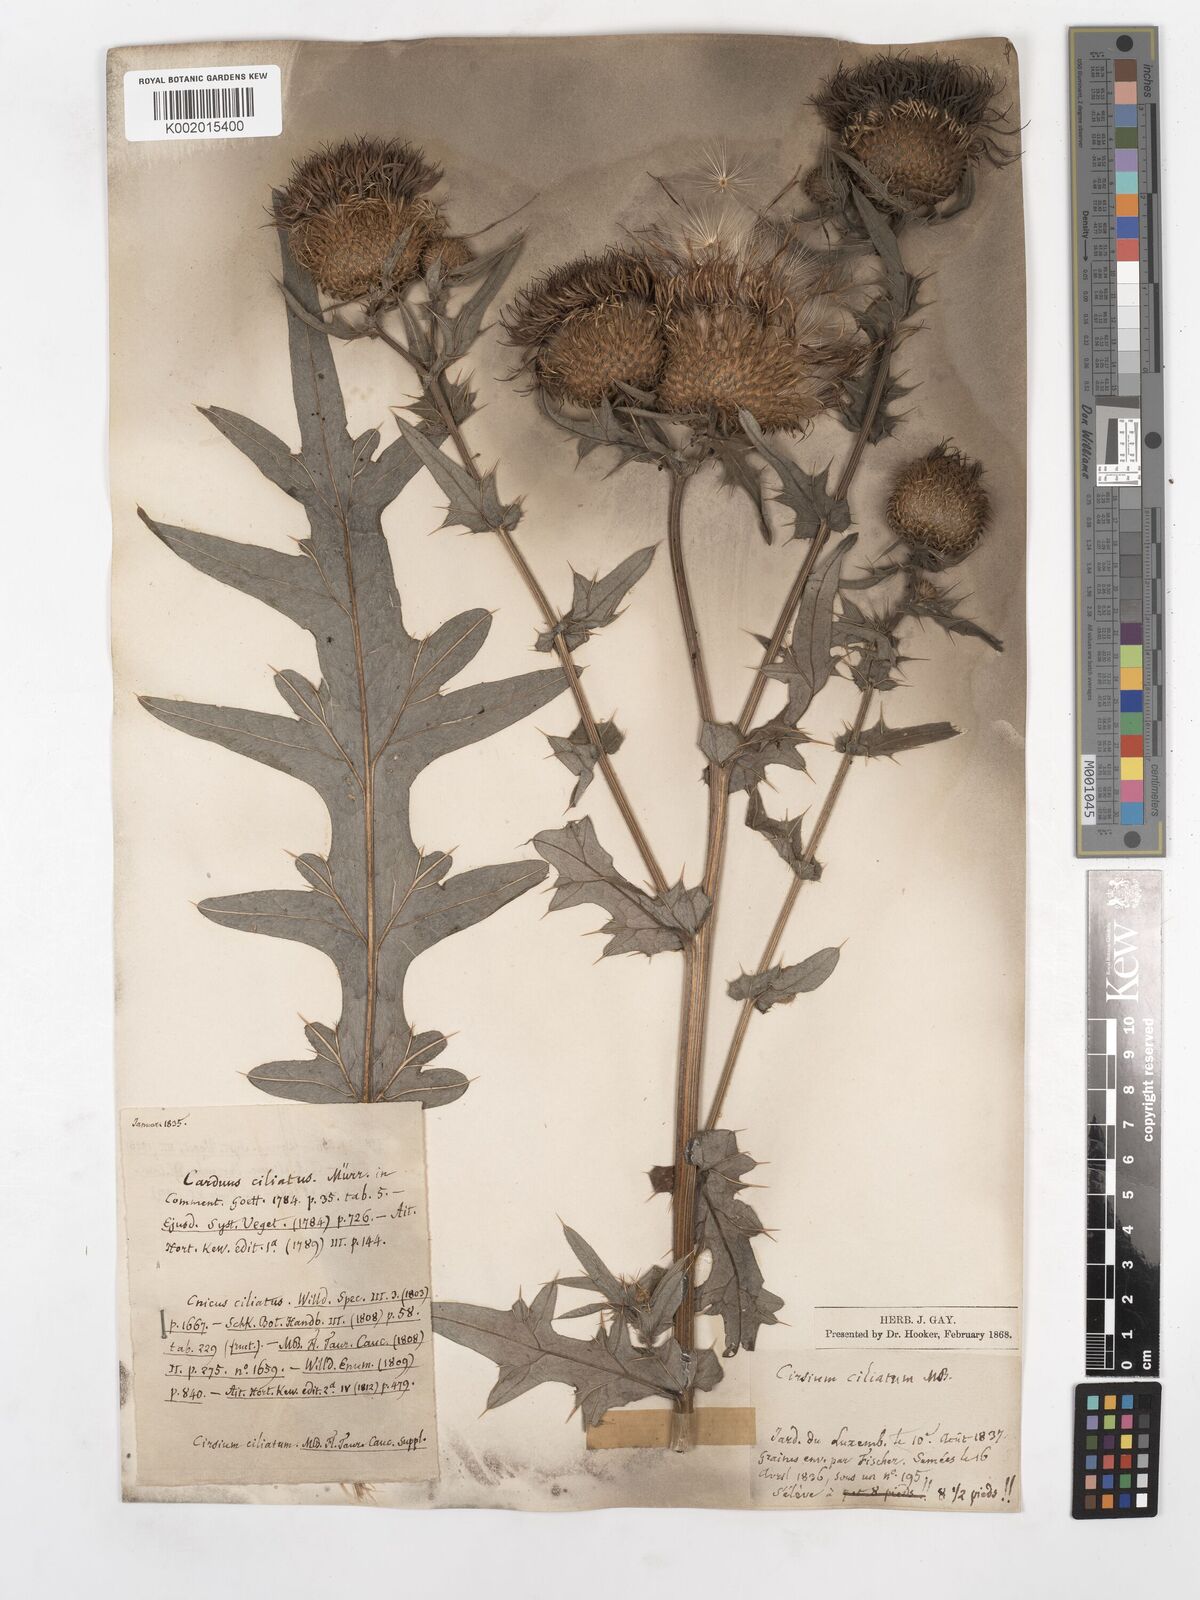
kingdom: Plantae
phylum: Tracheophyta
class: Magnoliopsida
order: Asterales
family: Asteraceae
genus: Lophiolepis
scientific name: Lophiolepis ciliata
